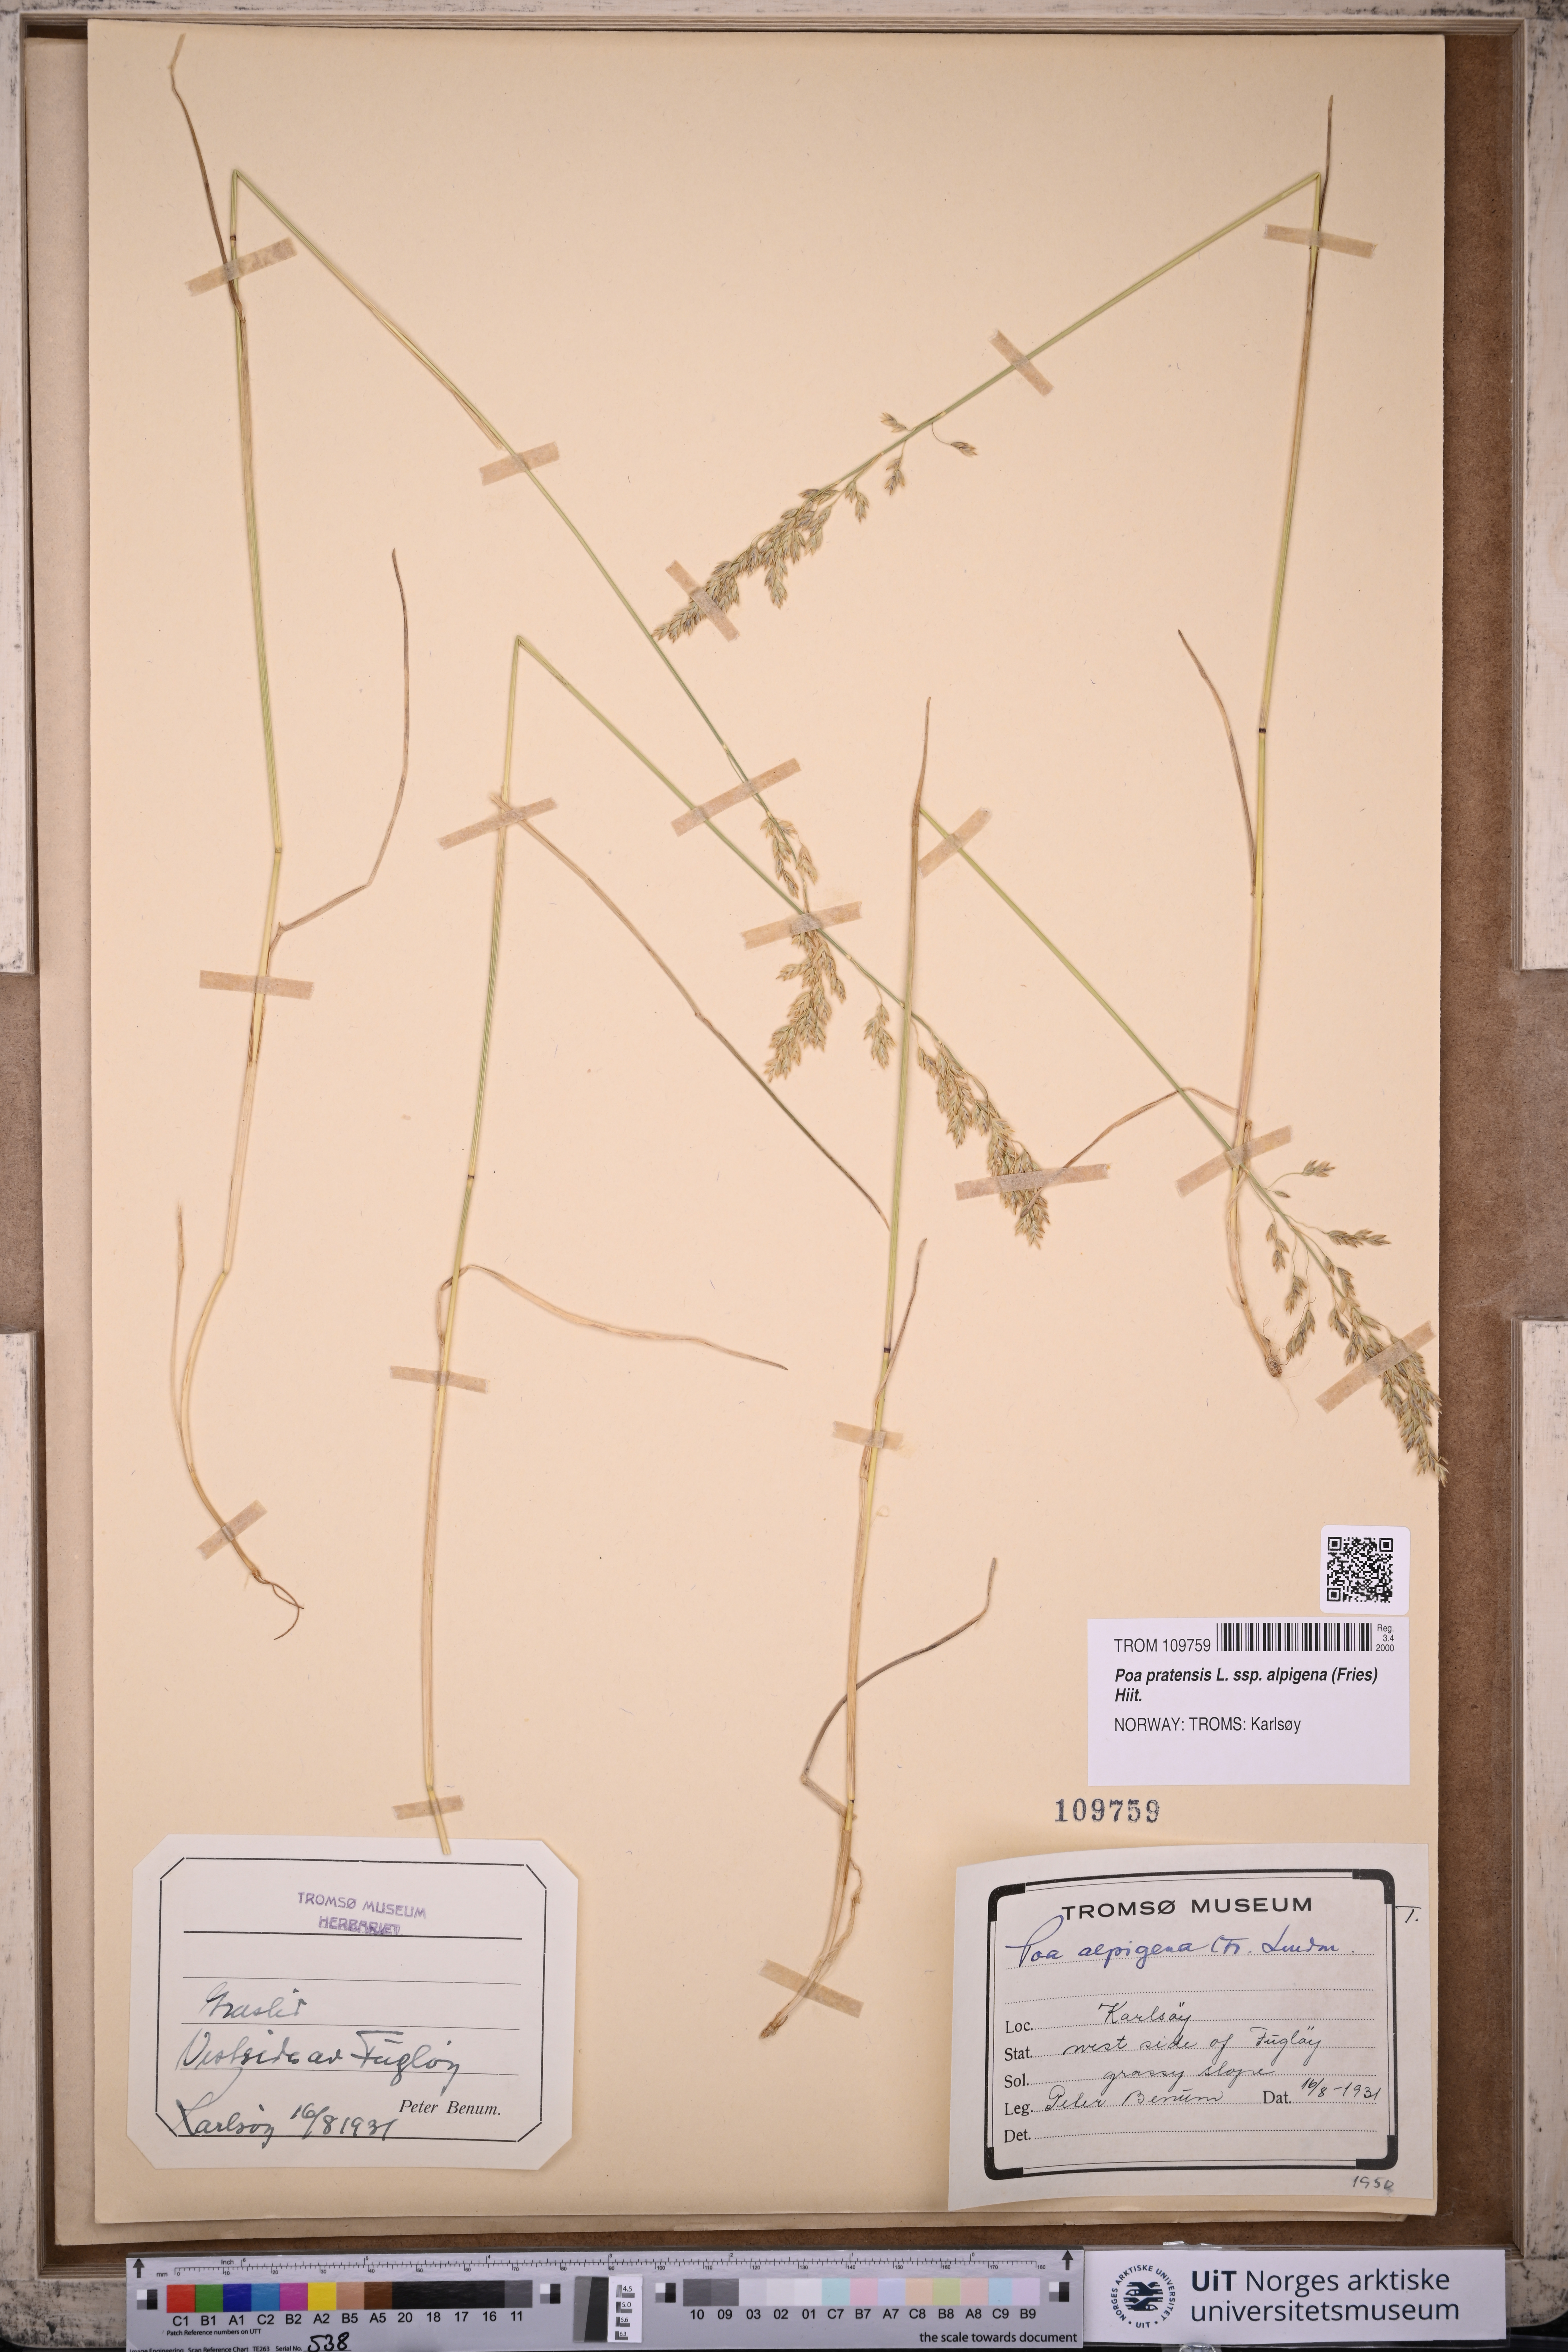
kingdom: Plantae
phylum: Tracheophyta
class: Liliopsida
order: Poales
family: Poaceae
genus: Poa
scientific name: Poa alpigena
